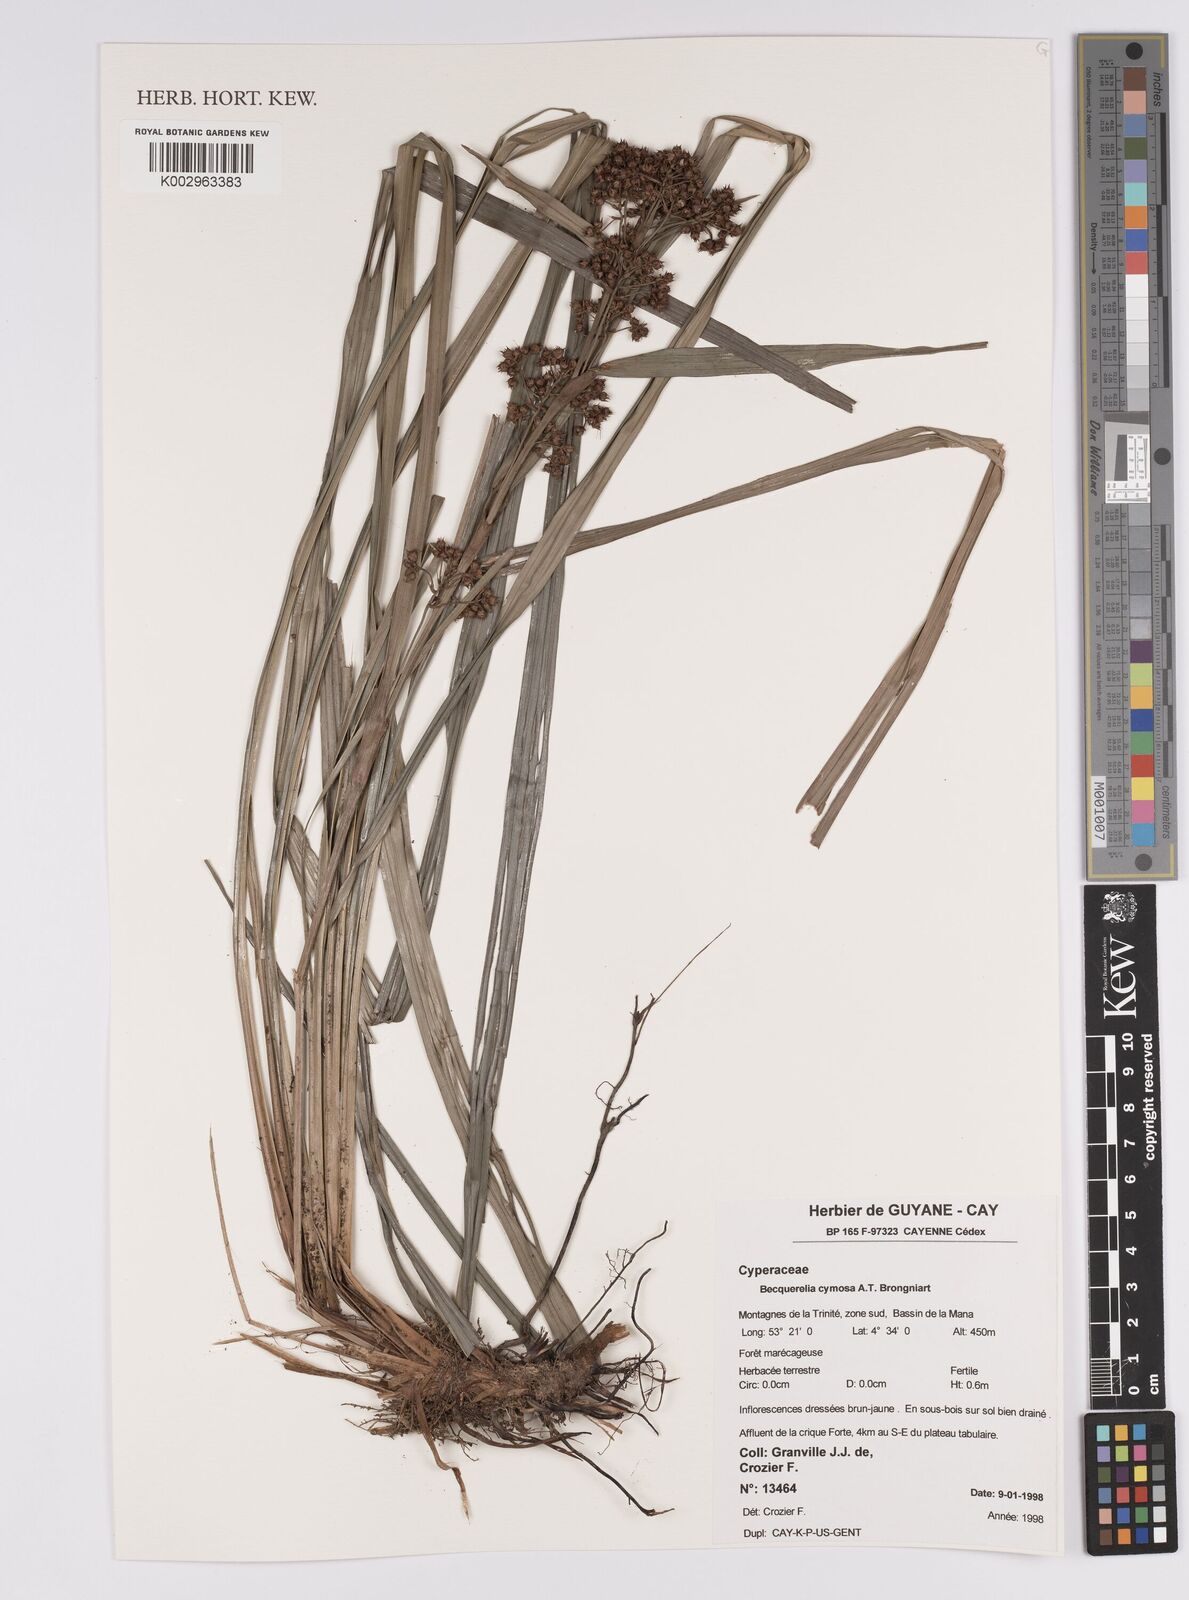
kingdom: Plantae
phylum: Tracheophyta
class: Liliopsida
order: Poales
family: Cyperaceae
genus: Becquerelia
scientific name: Becquerelia merkeliana
